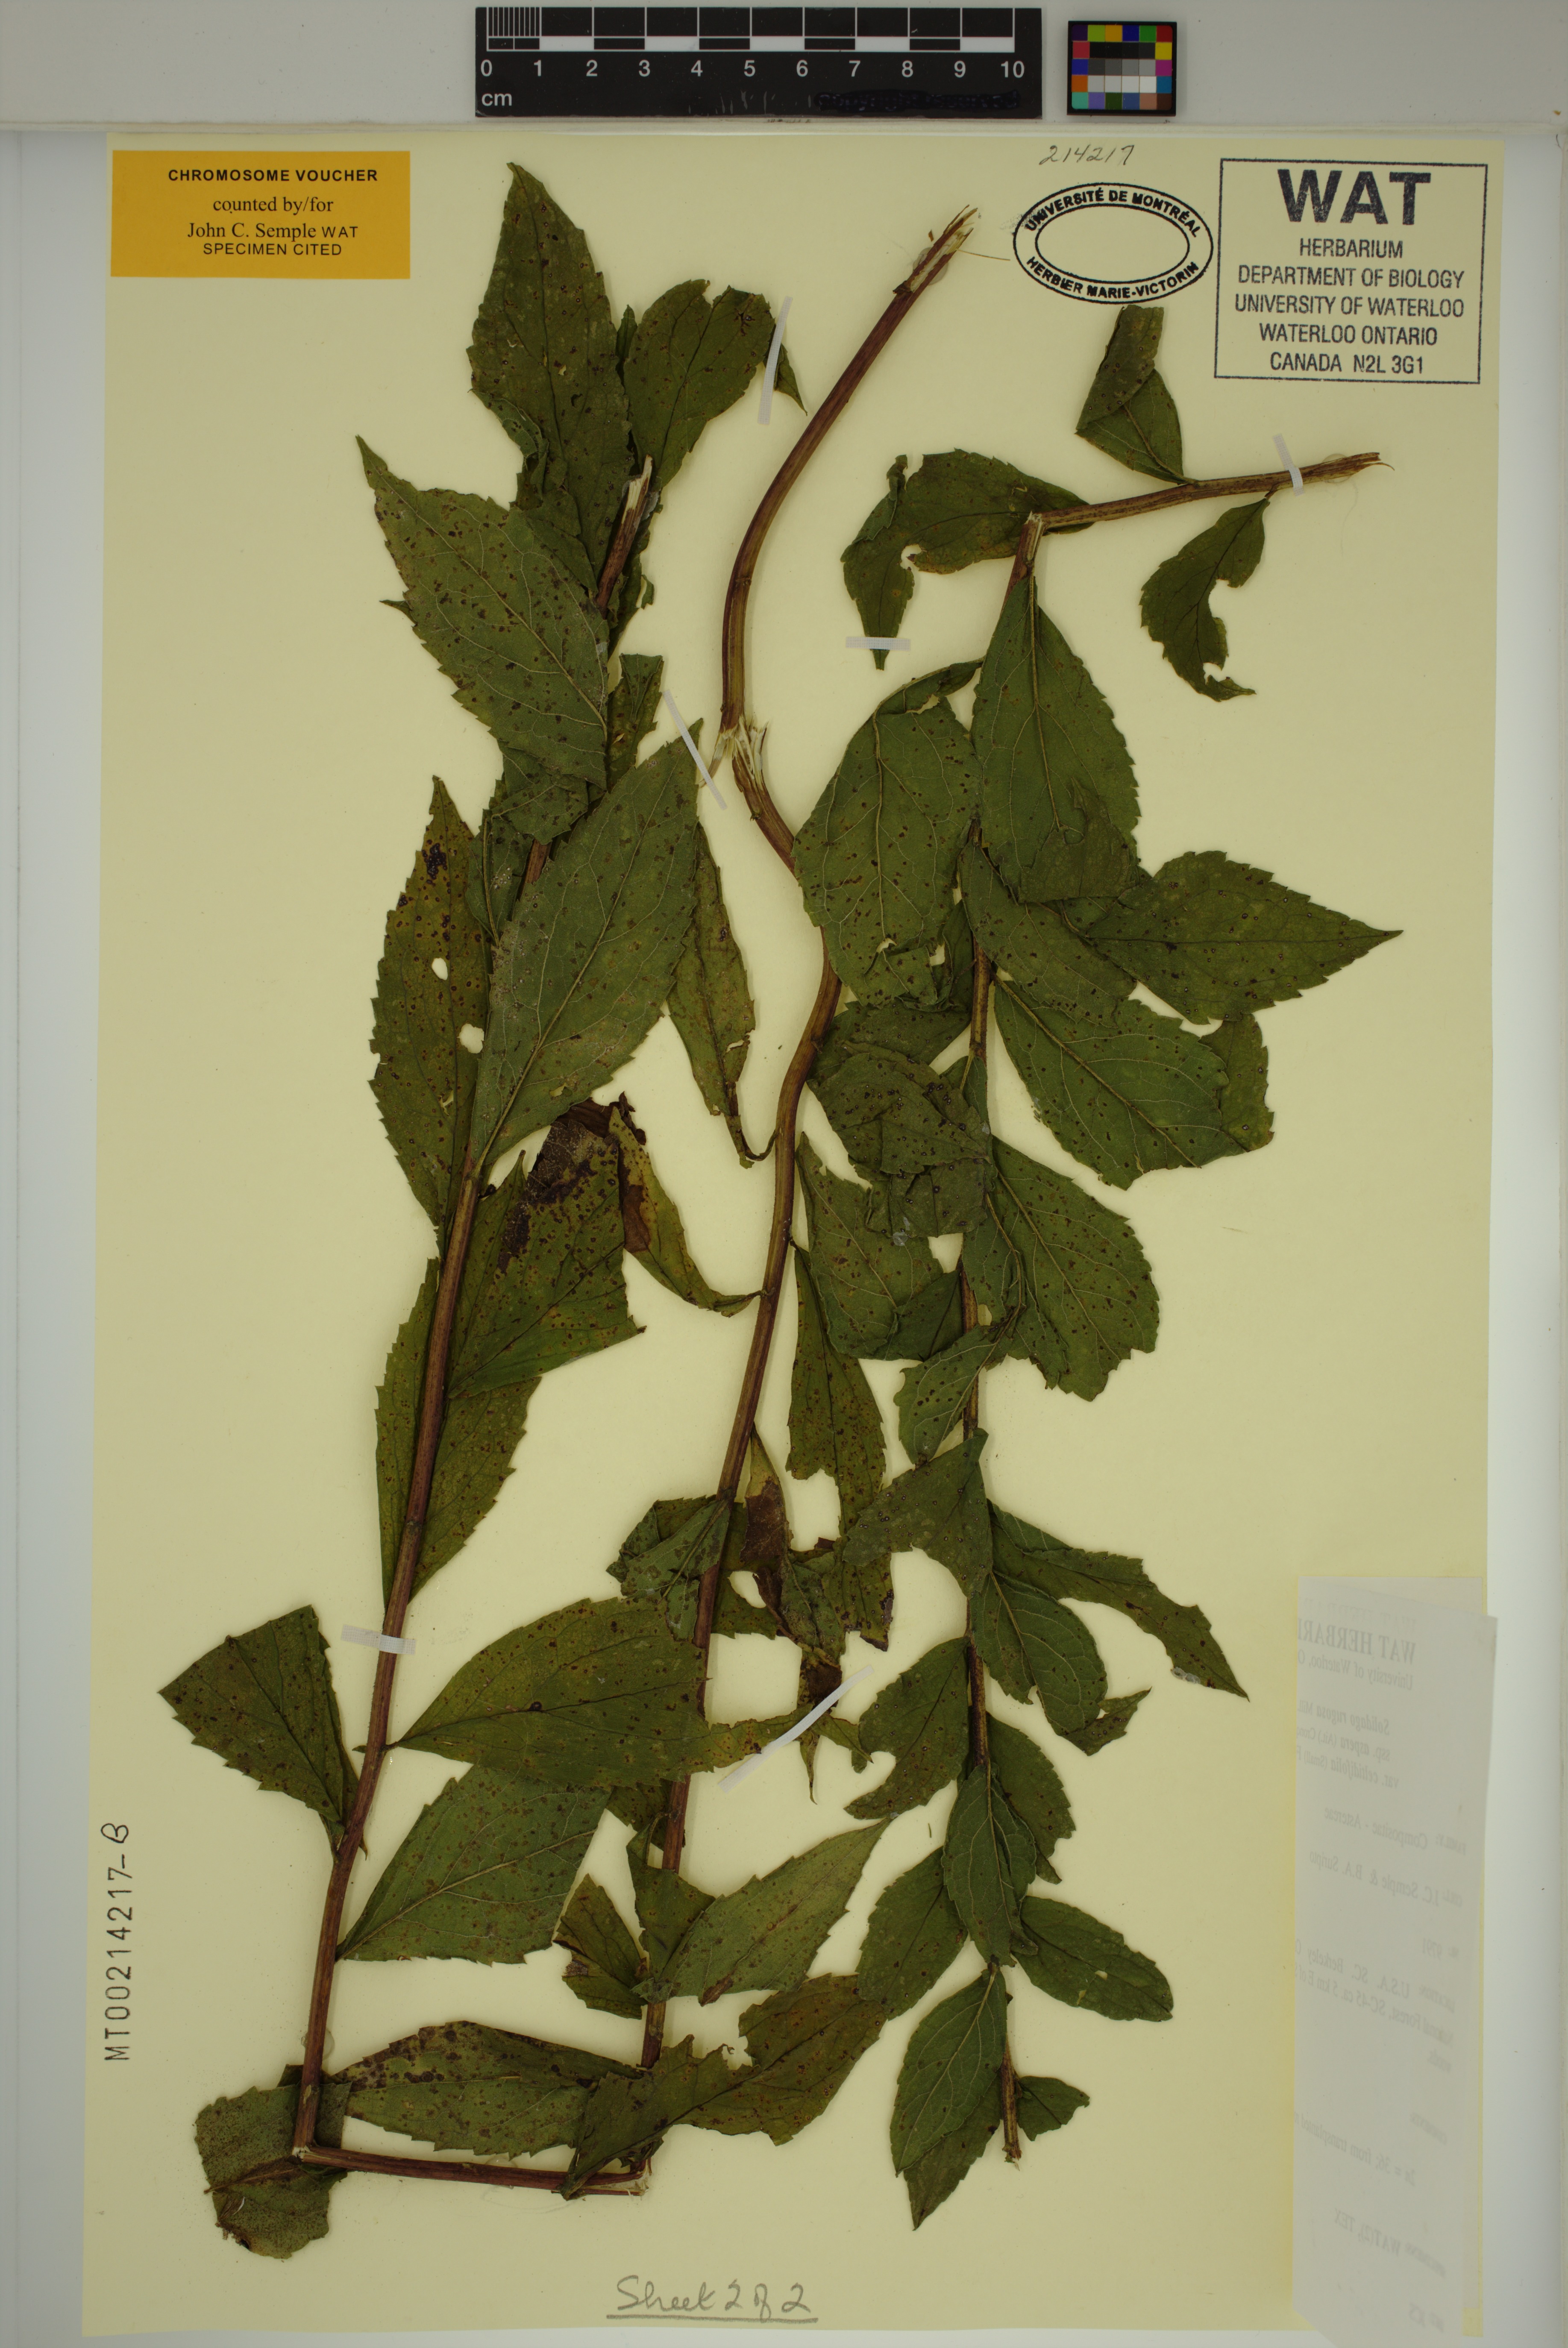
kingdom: Plantae
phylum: Tracheophyta
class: Magnoliopsida
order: Asterales
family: Asteraceae
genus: Solidago
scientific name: Solidago rugosa
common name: Rough-stemmed goldenrod
